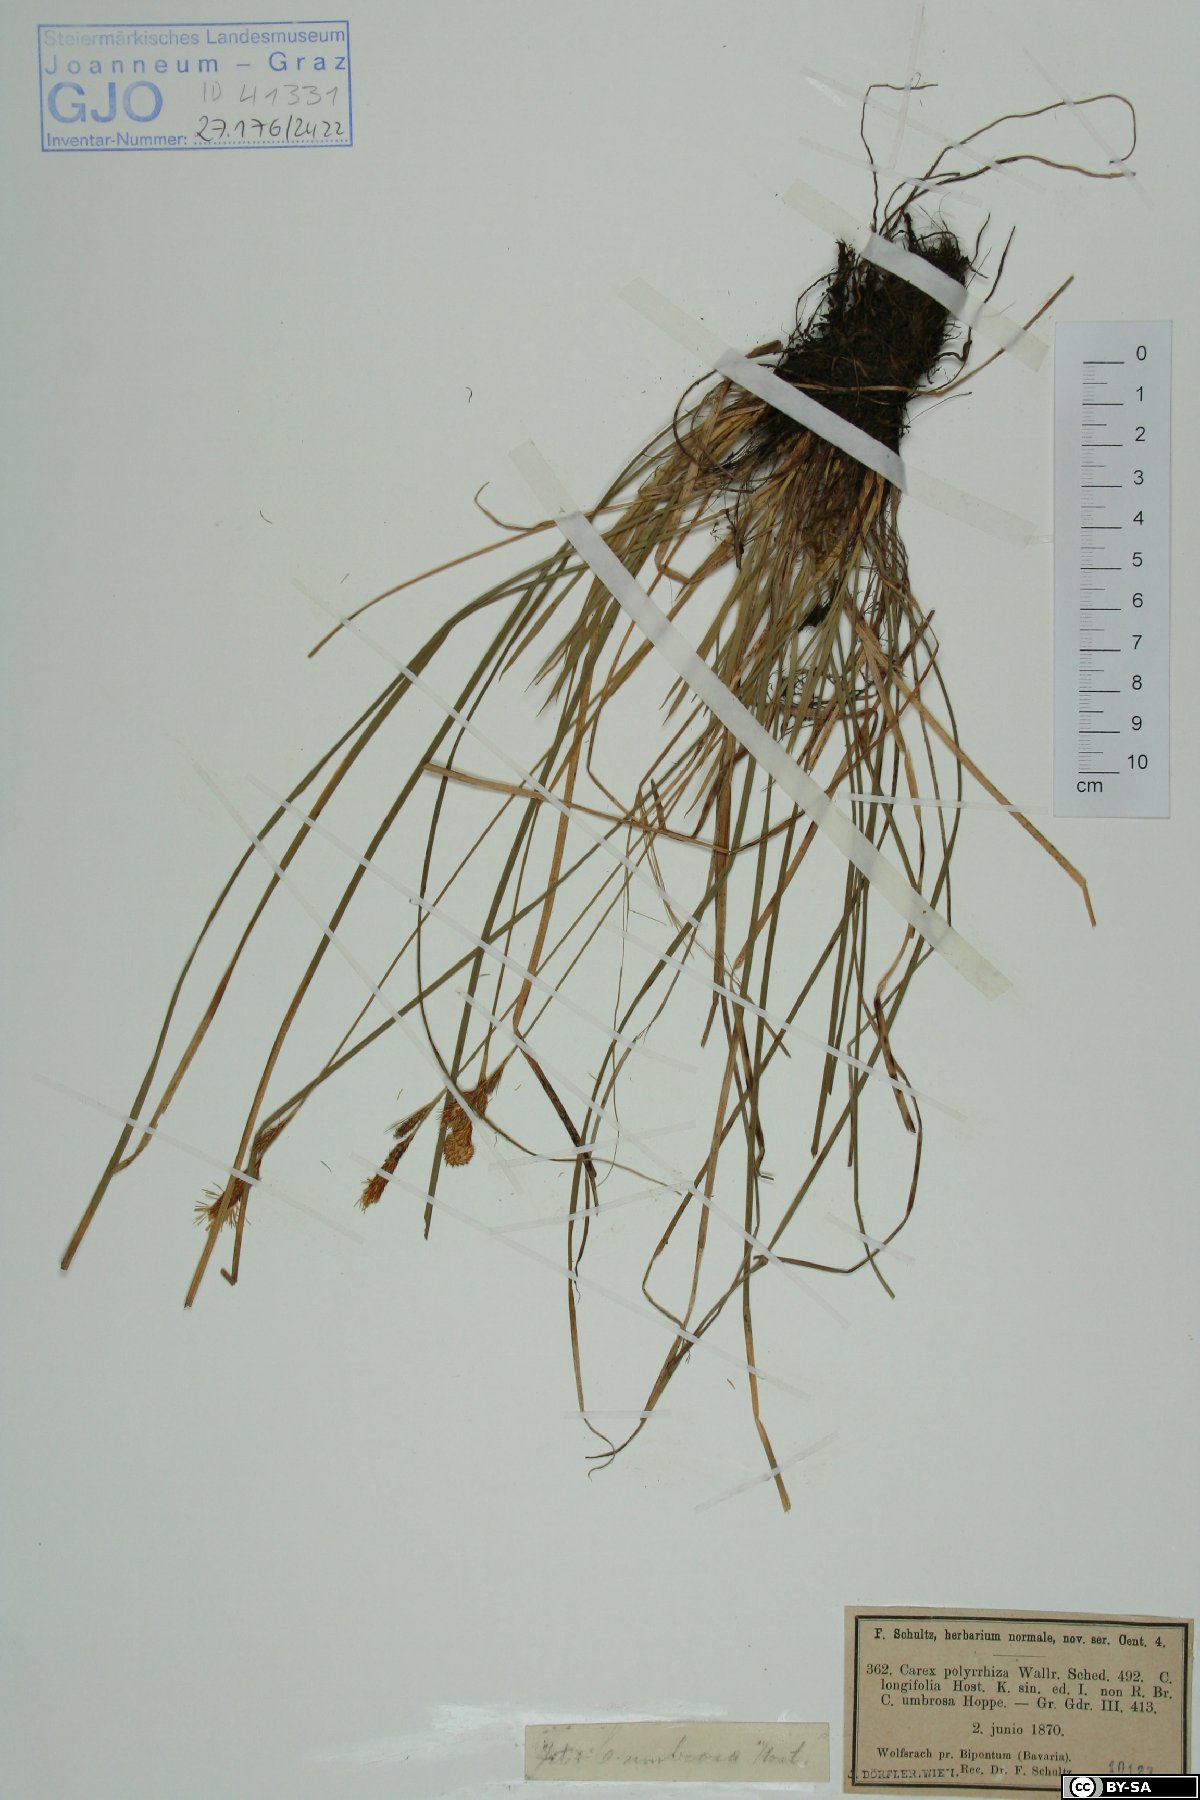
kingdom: Plantae
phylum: Tracheophyta
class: Liliopsida
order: Poales
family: Cyperaceae
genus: Carex
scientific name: Carex umbrosa
